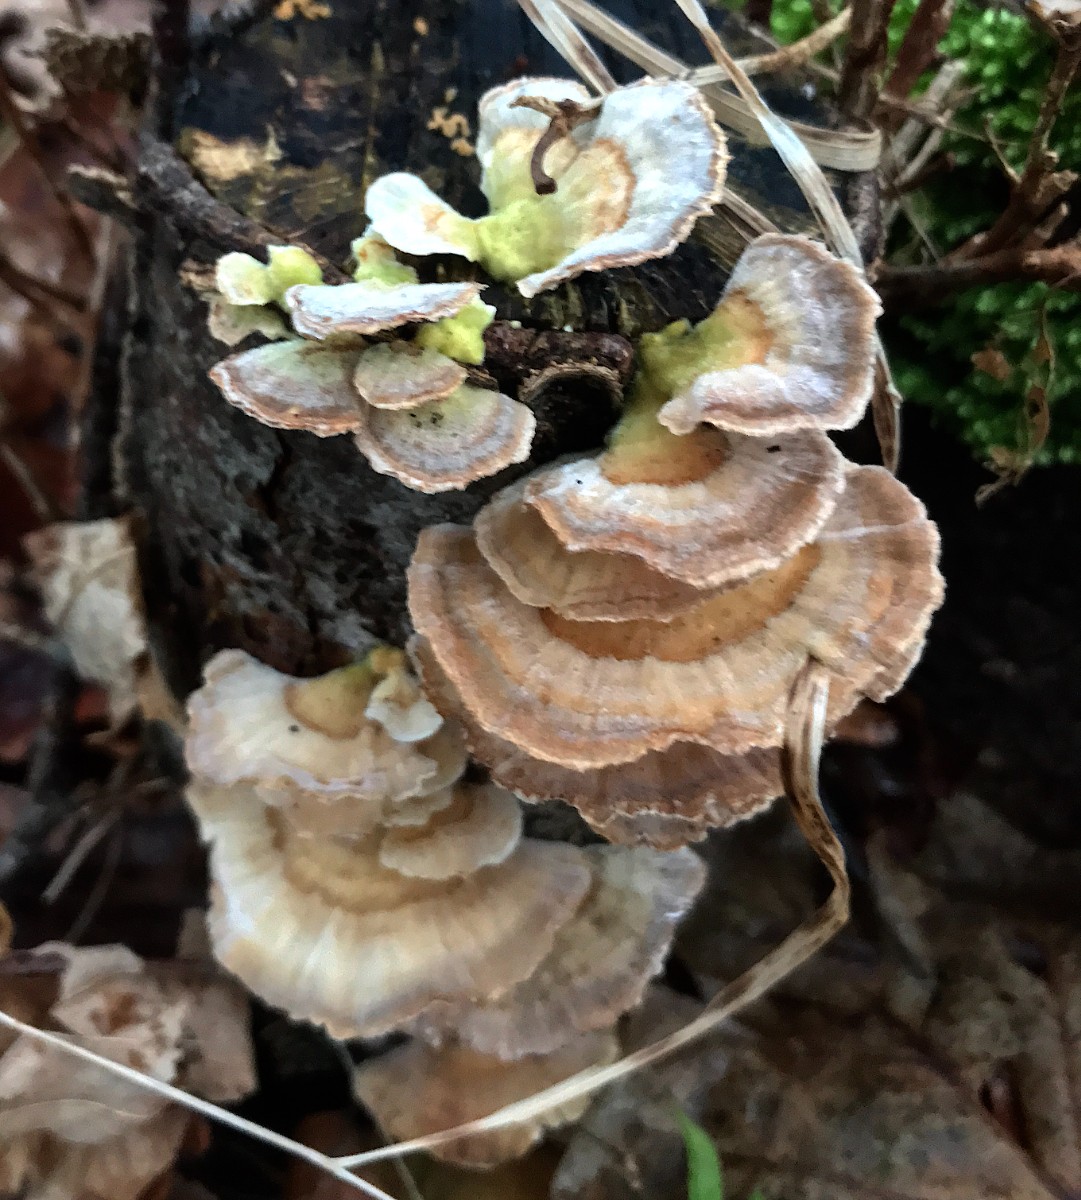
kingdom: Fungi
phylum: Basidiomycota
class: Agaricomycetes
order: Polyporales
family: Polyporaceae
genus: Trametes
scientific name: Trametes versicolor
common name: broget læderporesvamp
